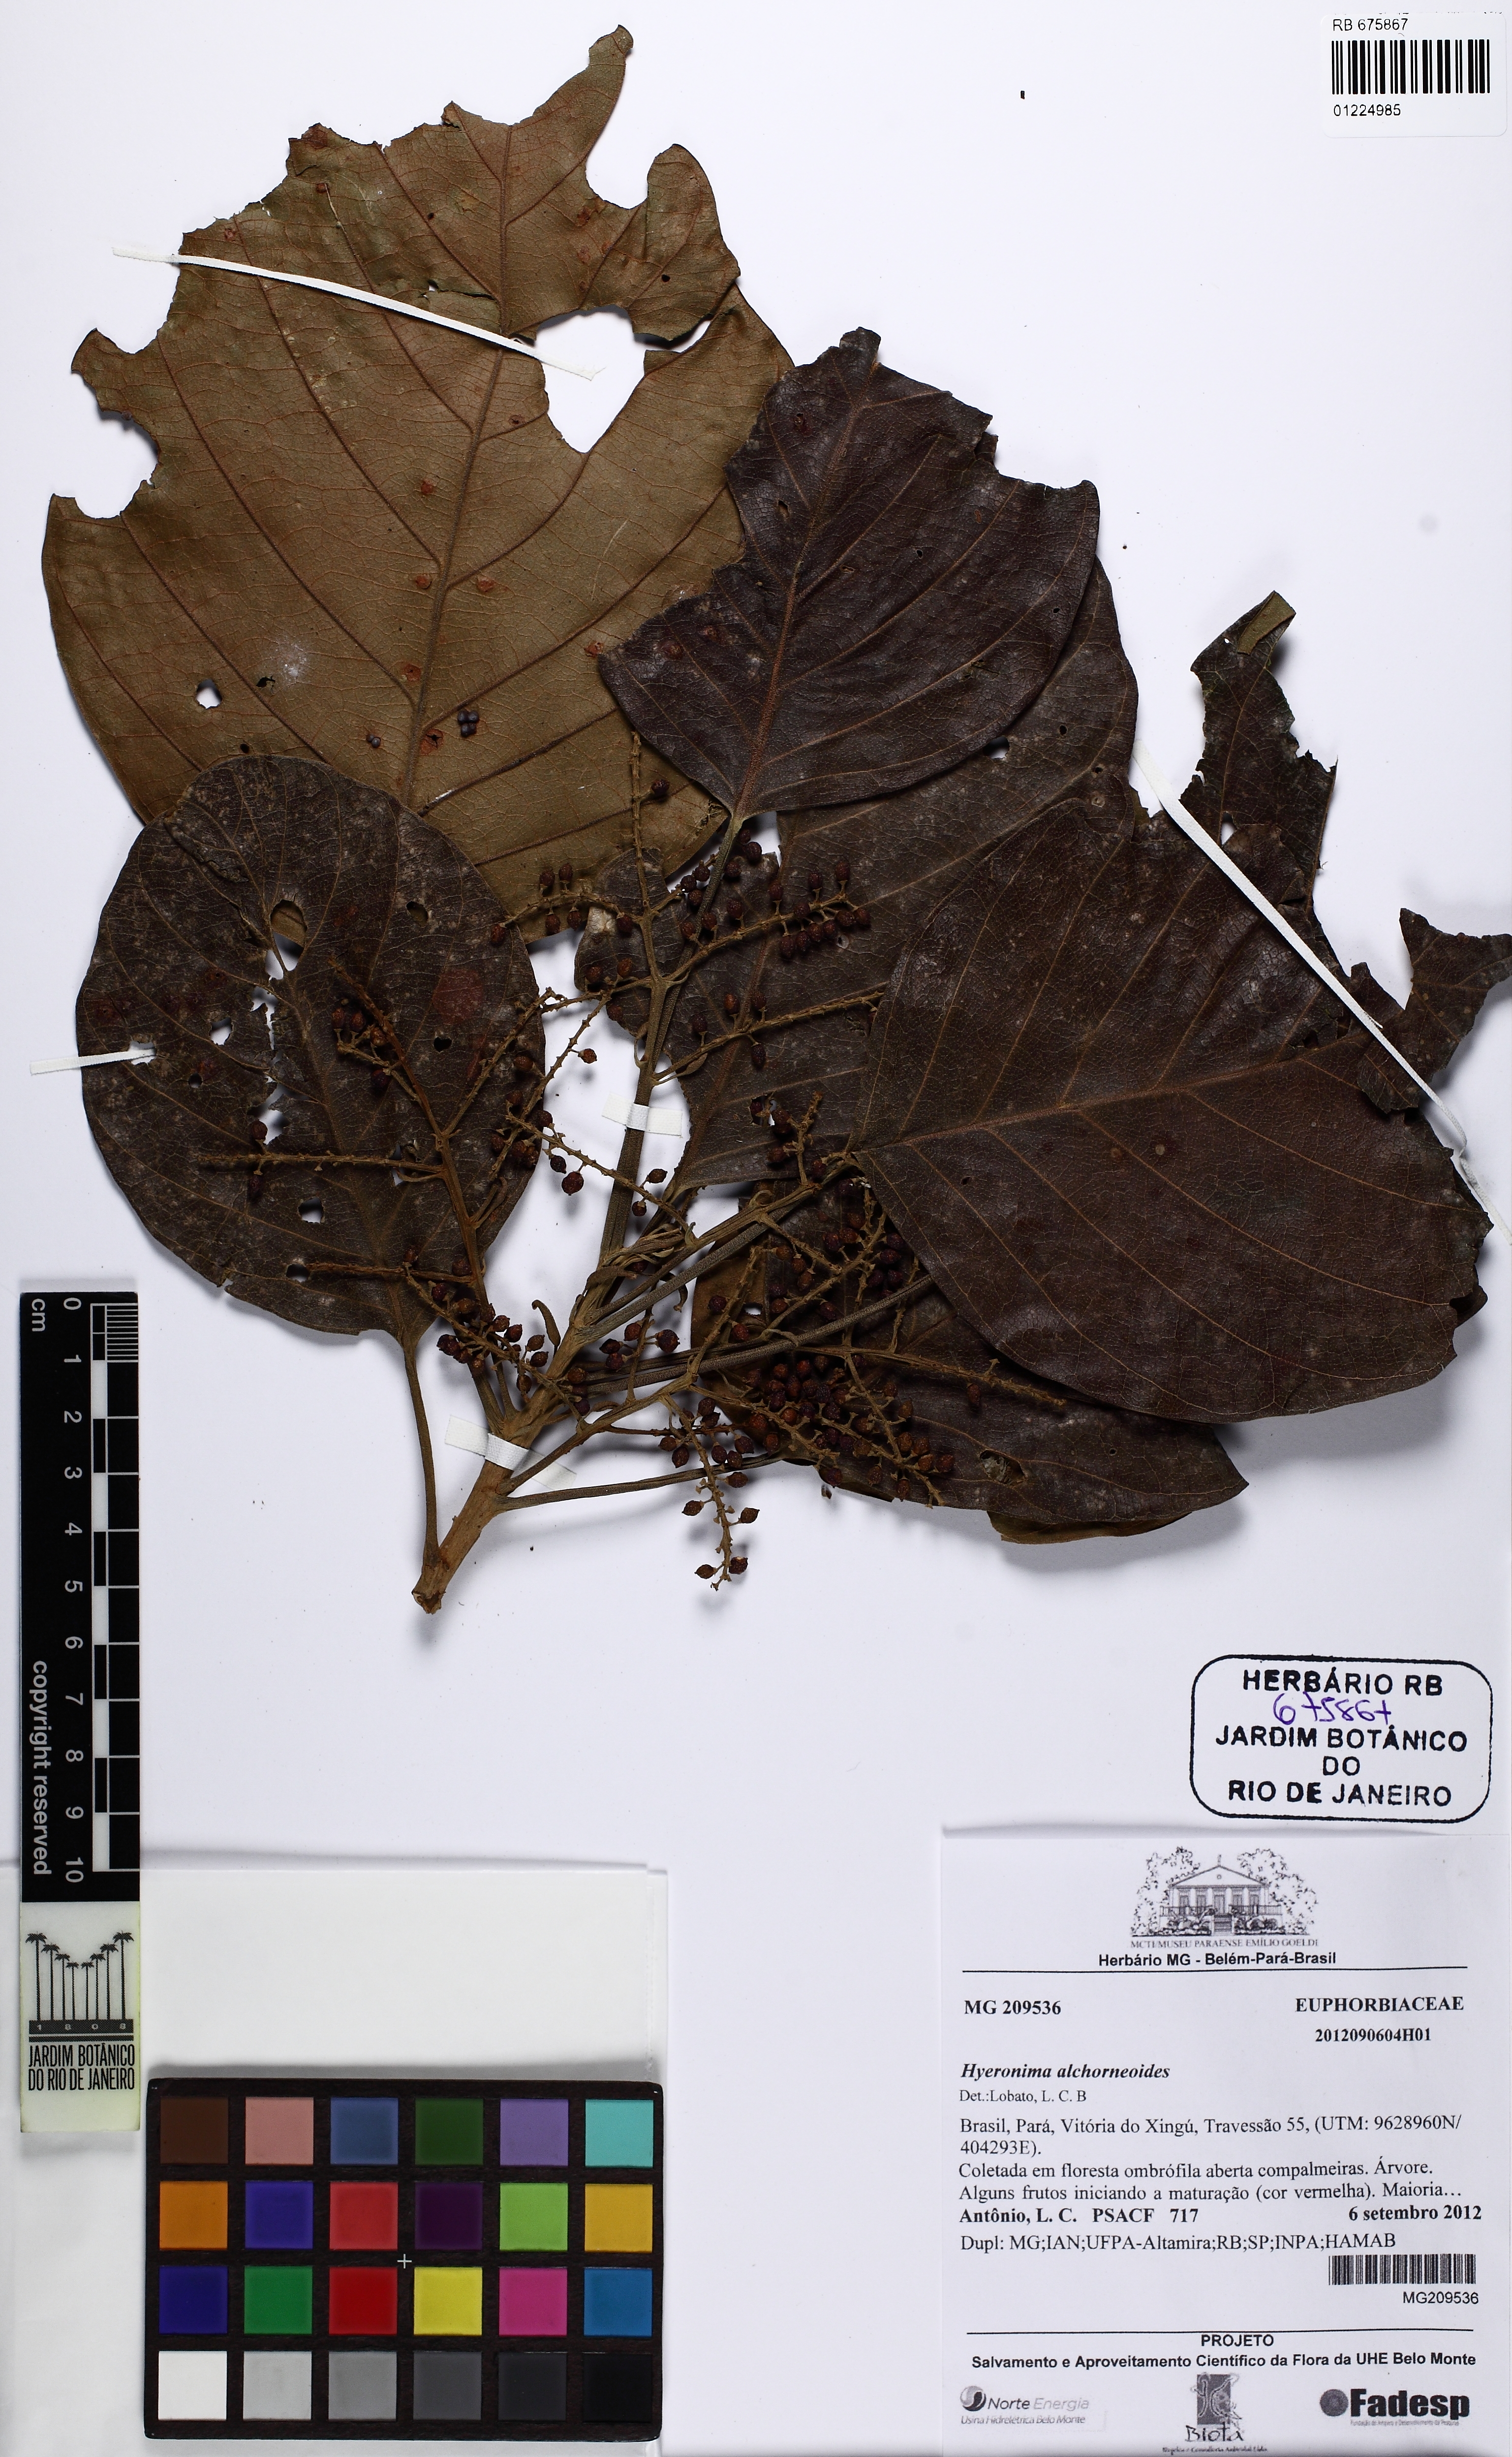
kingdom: Plantae
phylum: Tracheophyta
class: Magnoliopsida
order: Malpighiales
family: Phyllanthaceae
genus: Hieronyma
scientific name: Hieronyma alchorneoides
